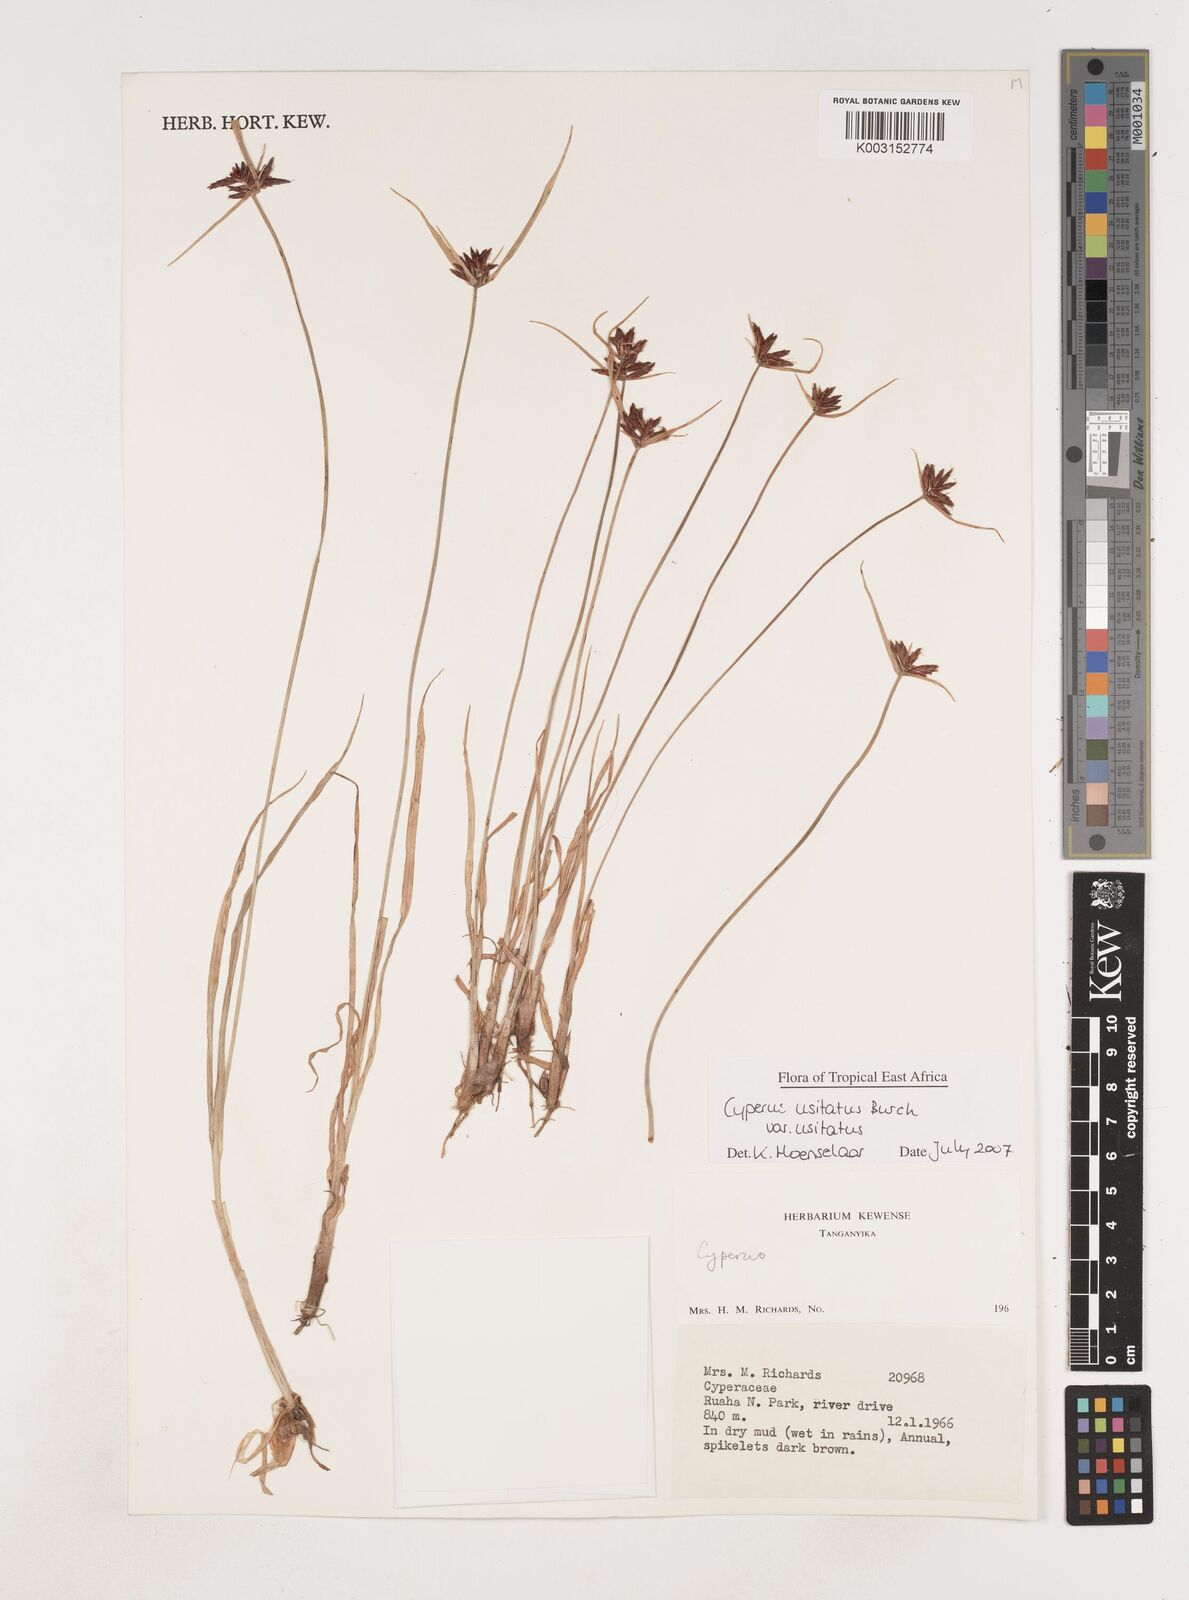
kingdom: Plantae
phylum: Tracheophyta
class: Liliopsida
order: Poales
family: Cyperaceae
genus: Cyperus
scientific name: Cyperus usitatus
